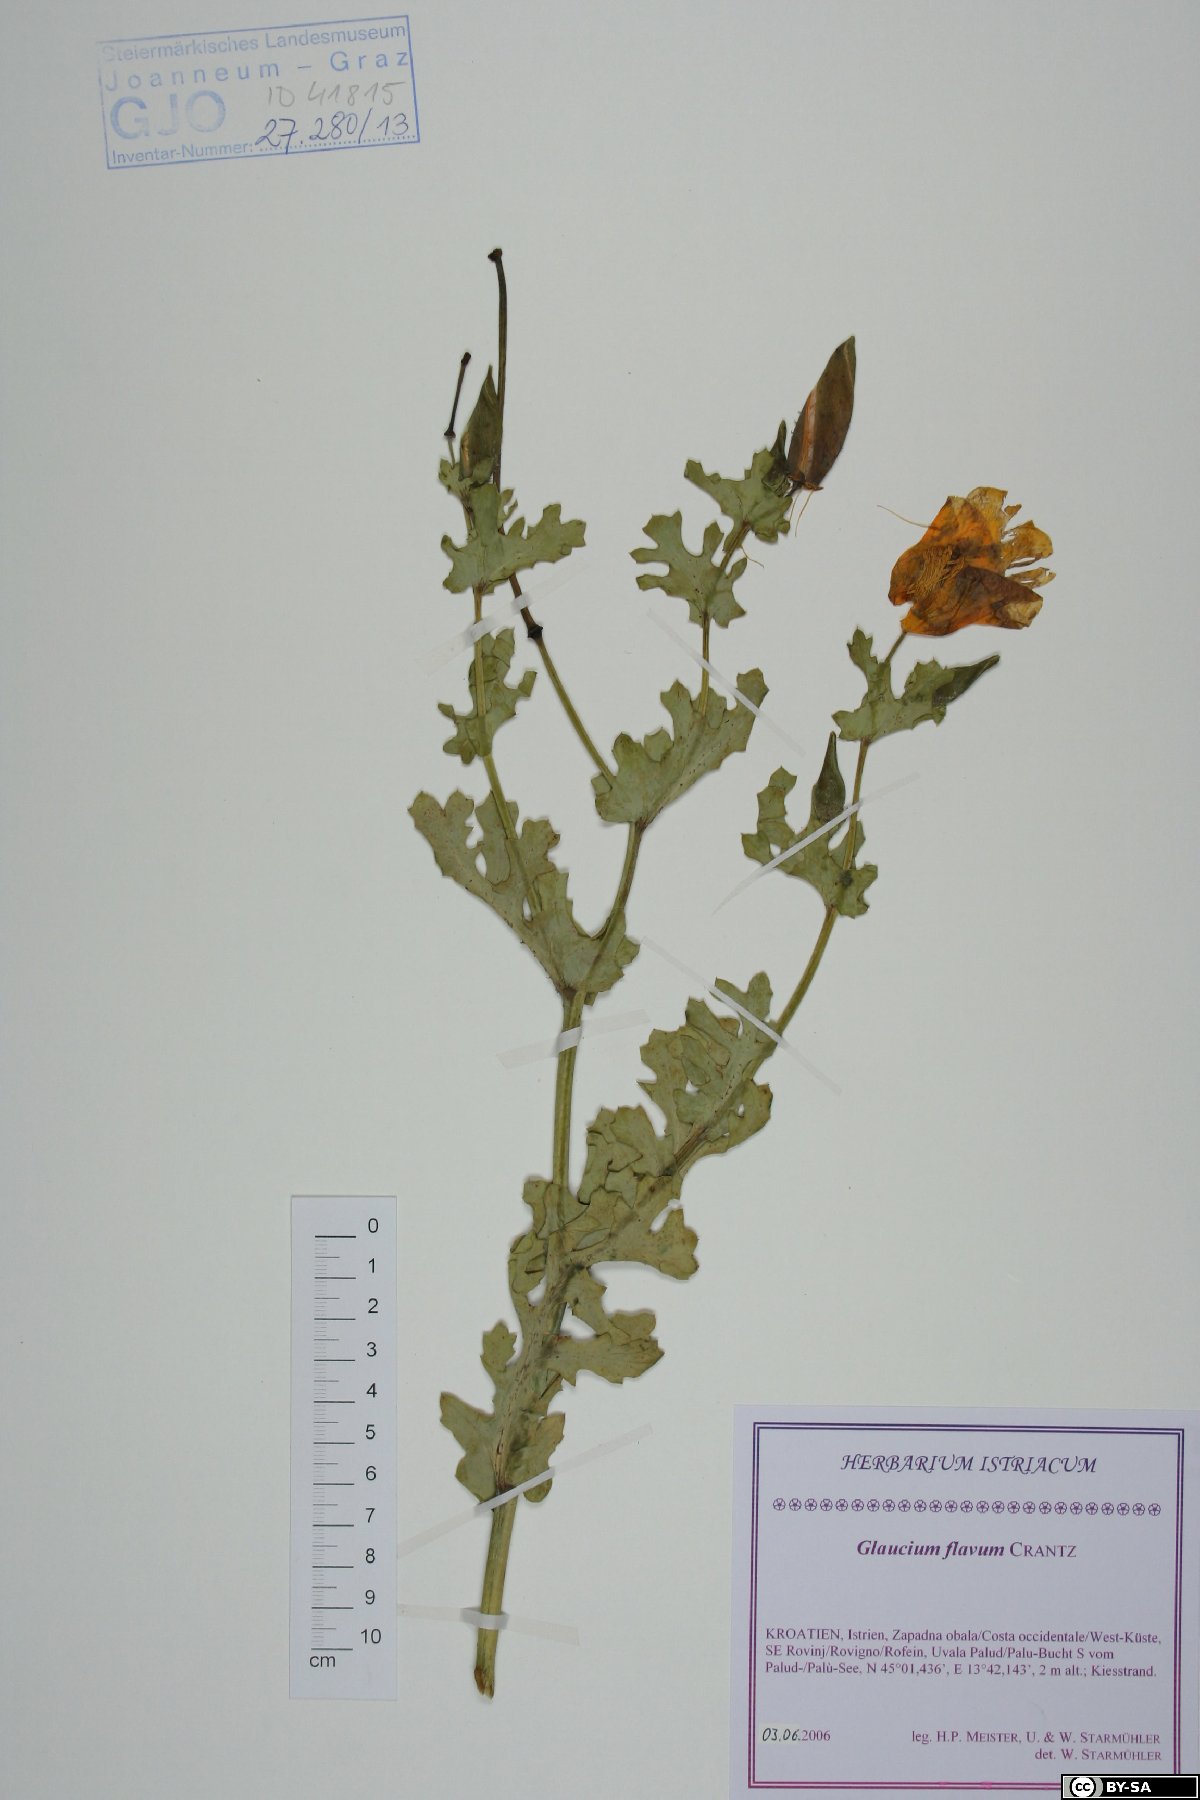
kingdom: Plantae
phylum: Tracheophyta
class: Magnoliopsida
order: Ranunculales
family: Papaveraceae
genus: Glaucium
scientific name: Glaucium flavum
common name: Yellow horned-poppy
